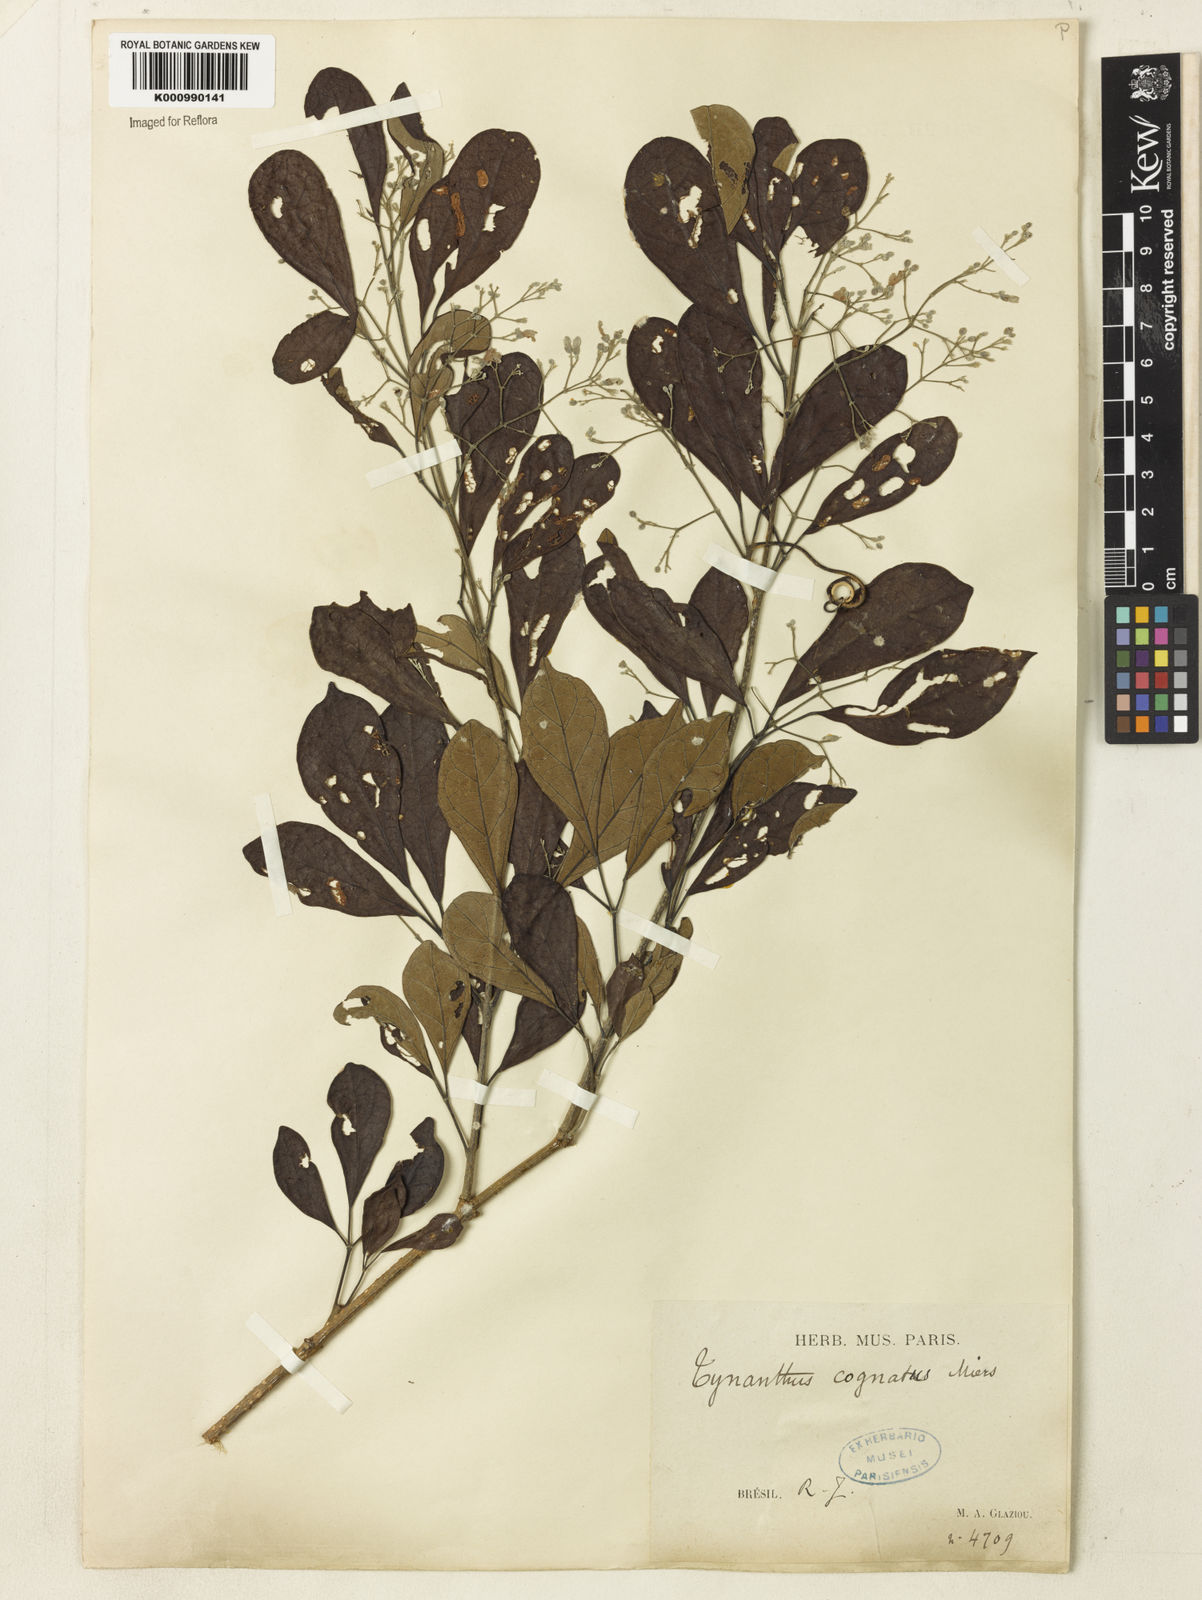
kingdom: Plantae
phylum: Tracheophyta
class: Magnoliopsida
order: Lamiales
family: Bignoniaceae
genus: Tynanthus
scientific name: Tynanthus cognatus
